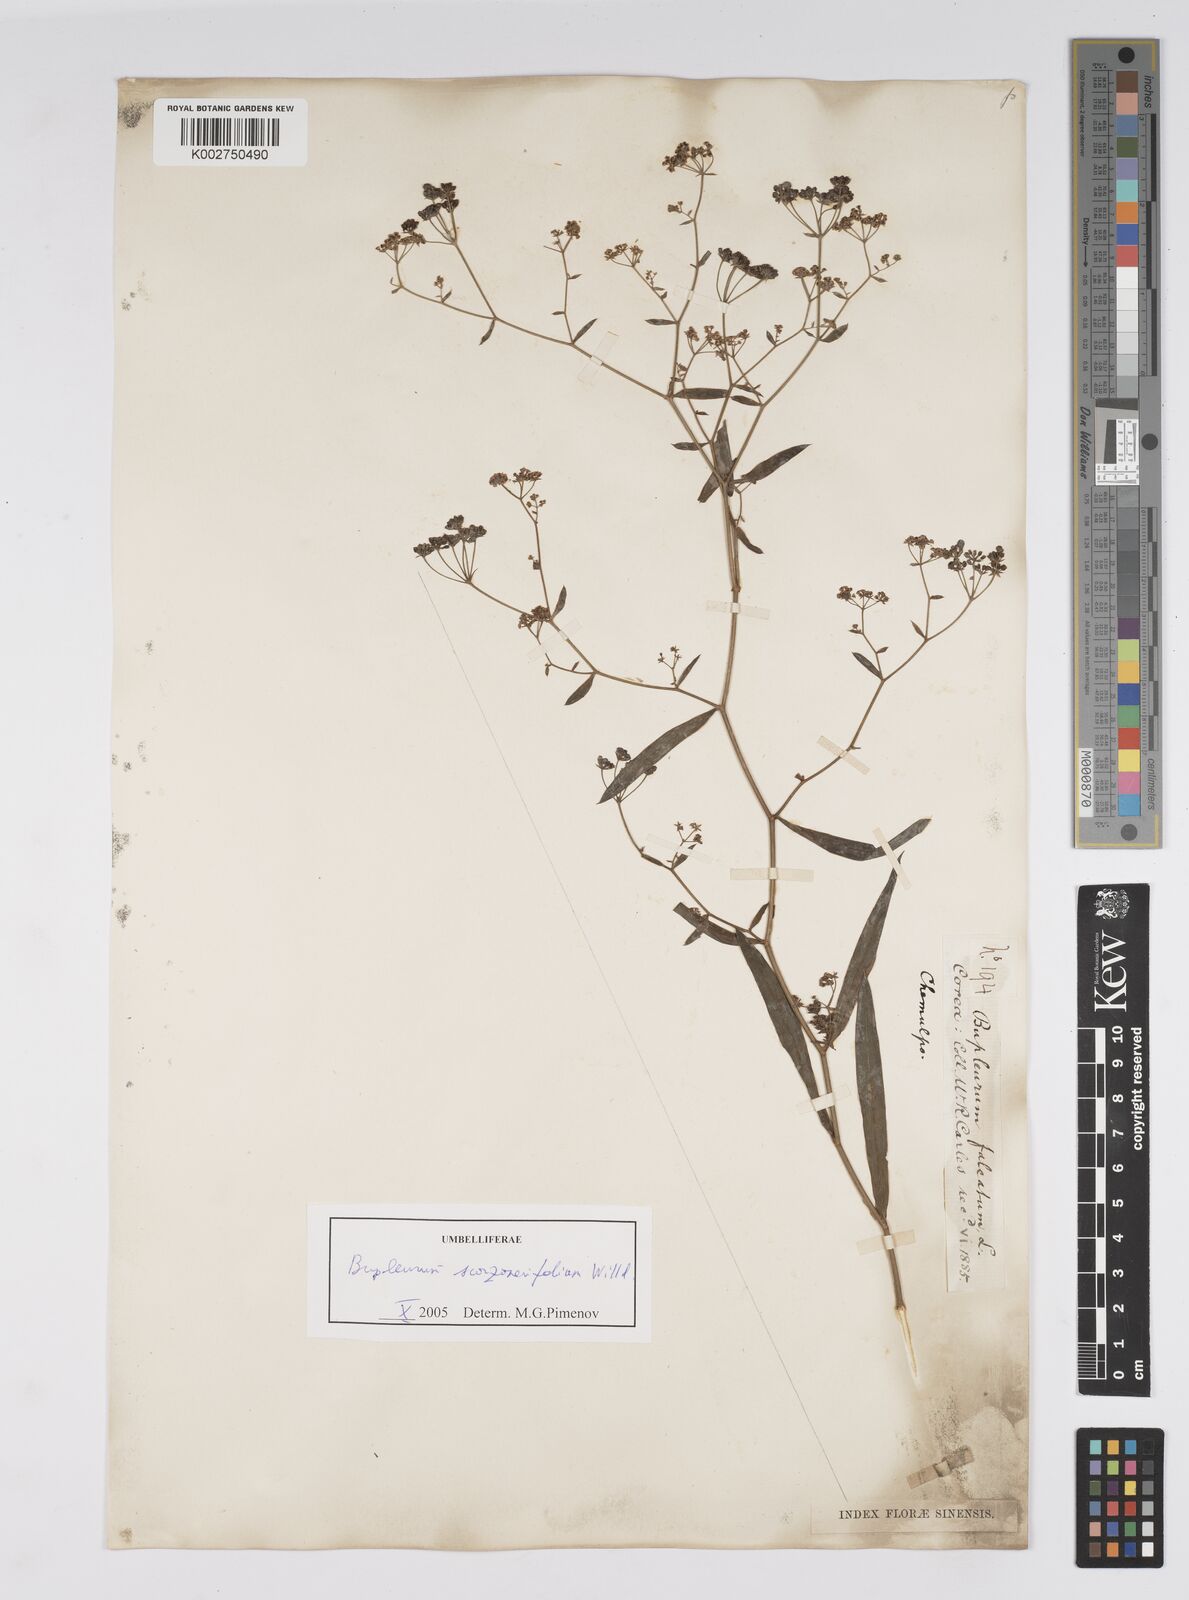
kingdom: Plantae
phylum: Tracheophyta
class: Magnoliopsida
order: Apiales
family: Apiaceae
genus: Bupleurum
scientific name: Bupleurum krylovianum
